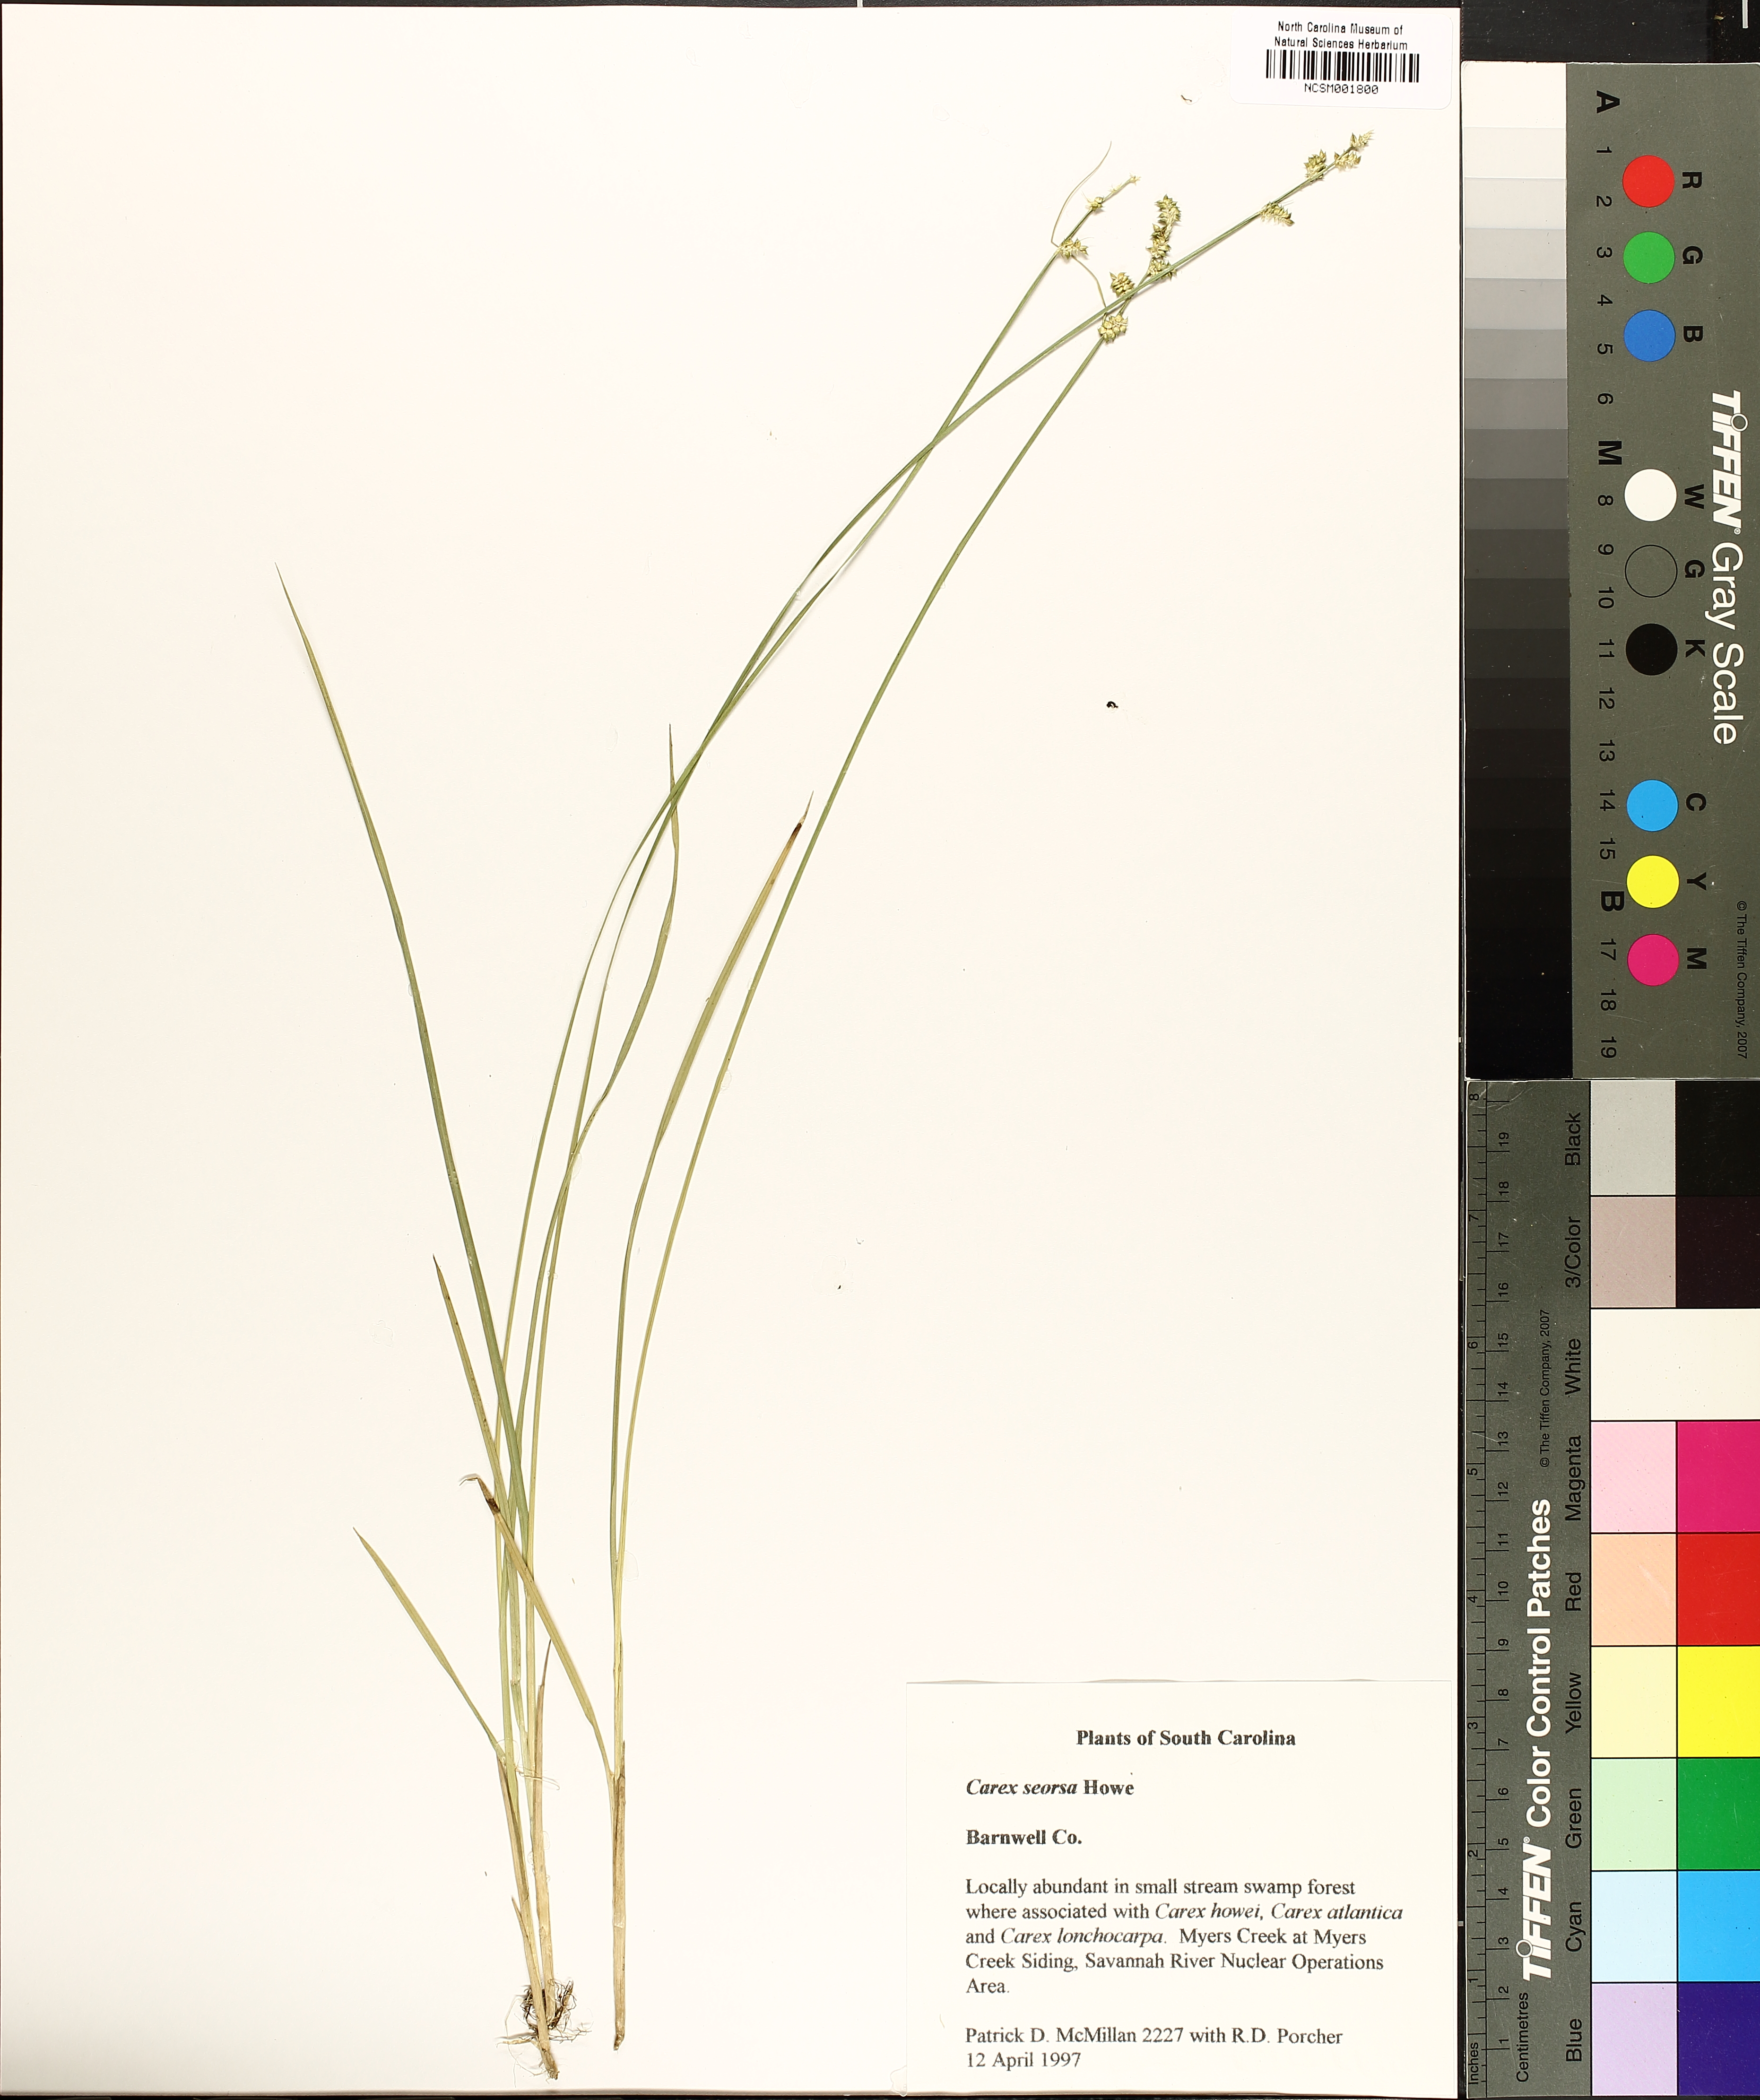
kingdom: Plantae
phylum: Tracheophyta
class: Liliopsida
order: Poales
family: Cyperaceae
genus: Carex
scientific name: Carex seorsa
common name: Swamp star sedge
